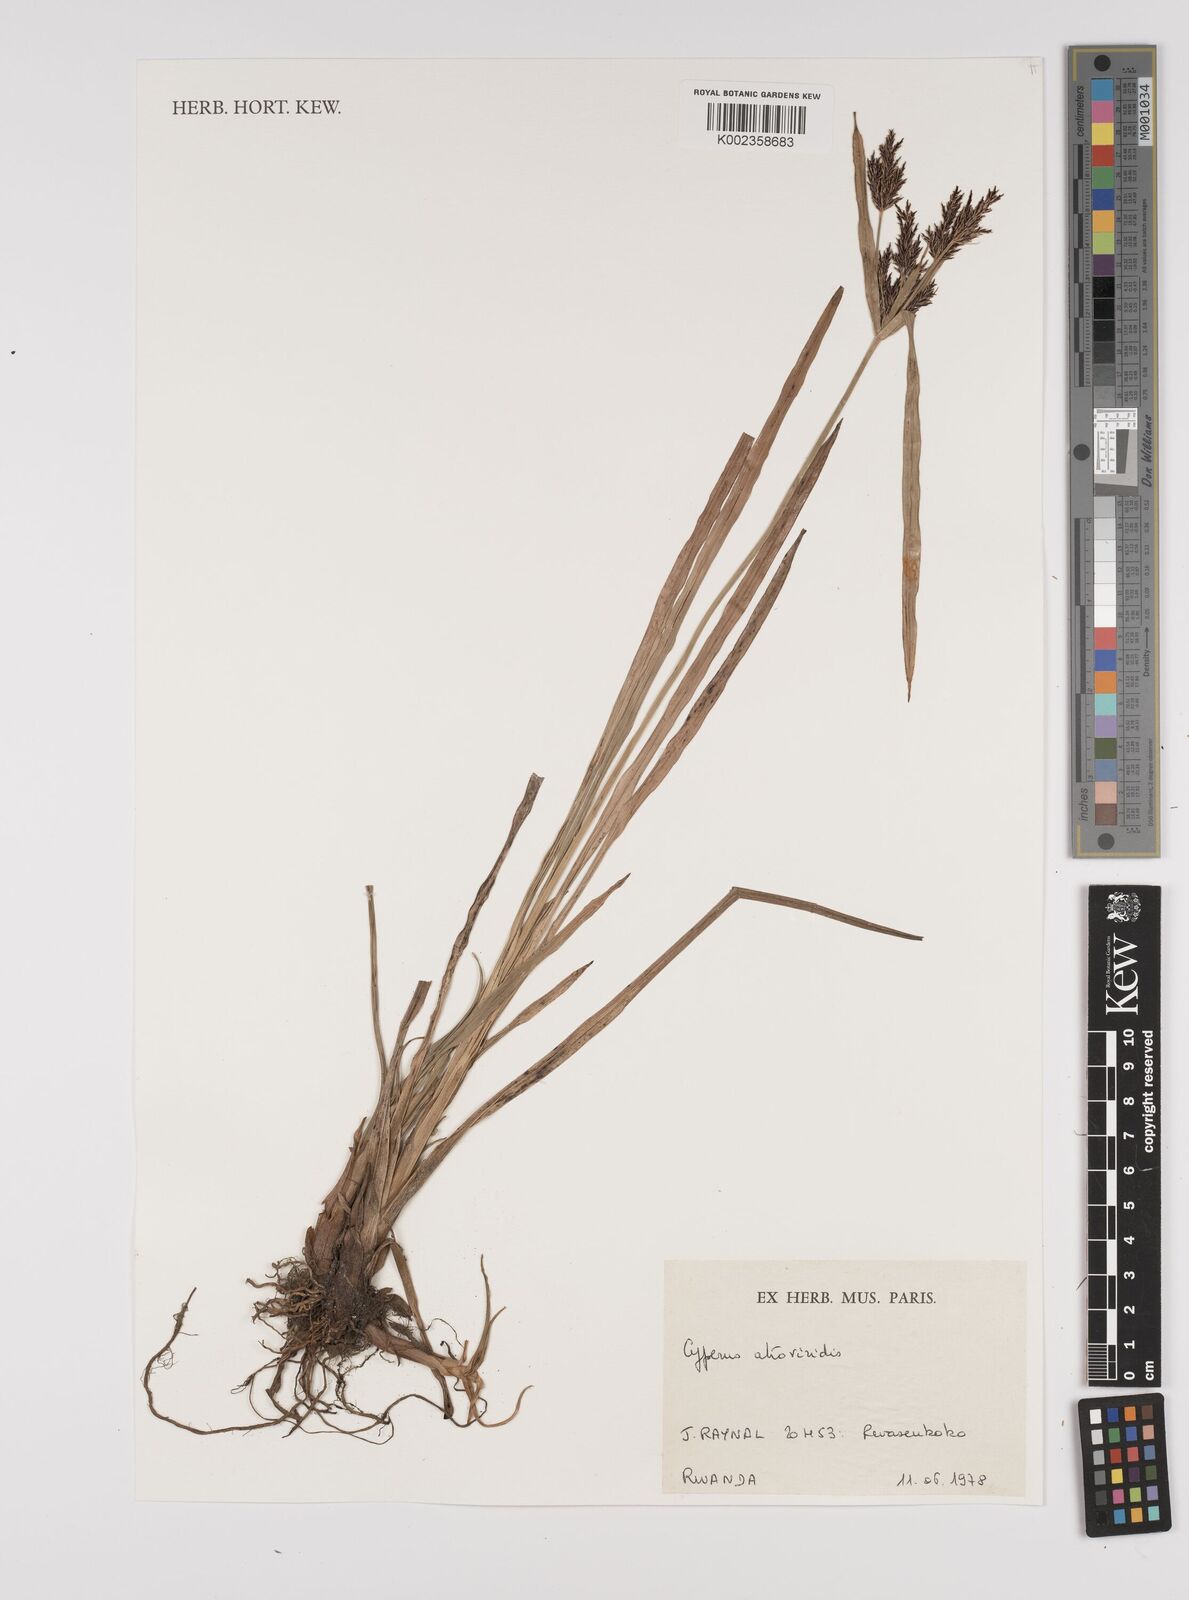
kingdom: Plantae
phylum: Tracheophyta
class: Liliopsida
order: Poales
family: Cyperaceae
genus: Cyperus
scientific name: Cyperus aterrimus
